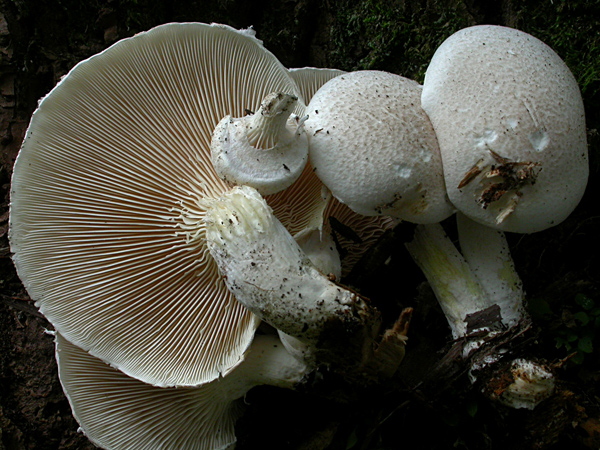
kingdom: Fungi
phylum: Basidiomycota
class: Agaricomycetes
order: Agaricales
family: Pleurotaceae
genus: Pleurotus
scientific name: Pleurotus dryinus
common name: korkagtig østershat
